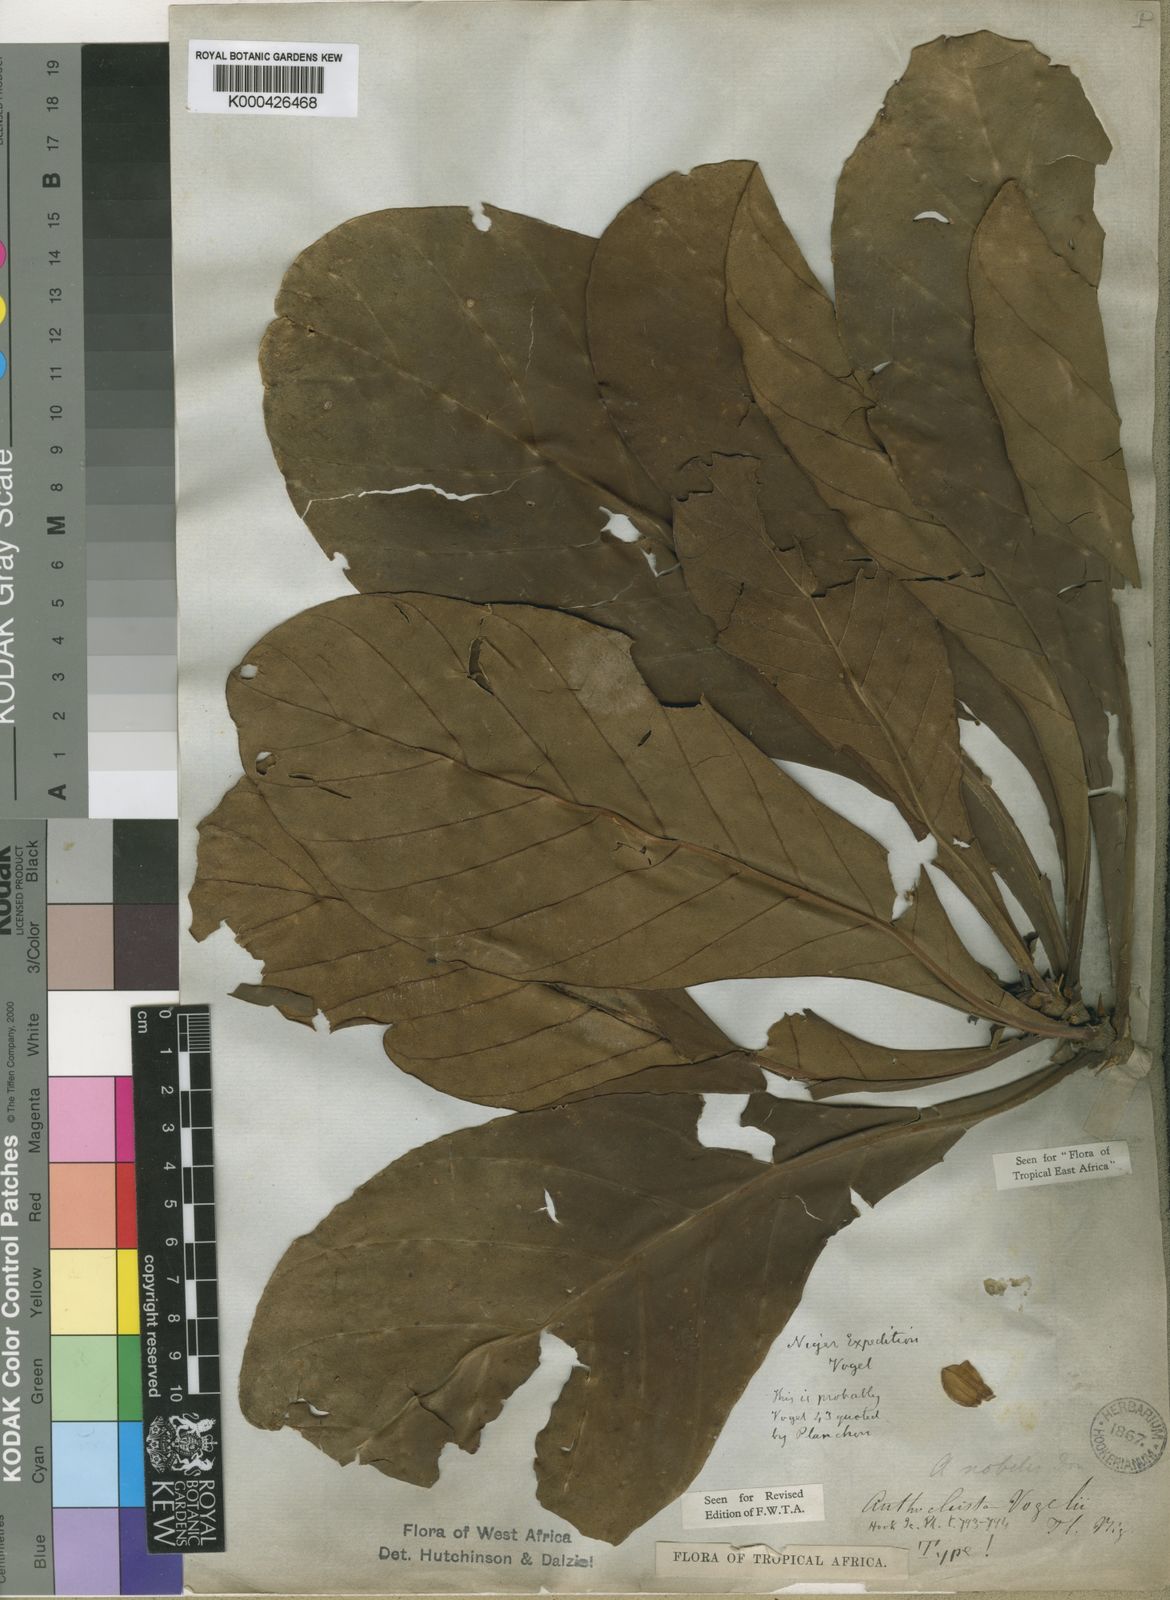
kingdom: Plantae
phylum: Tracheophyta
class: Magnoliopsida
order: Gentianales
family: Gentianaceae
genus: Anthocleista
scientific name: Anthocleista vogelii
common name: Cabbage tree
